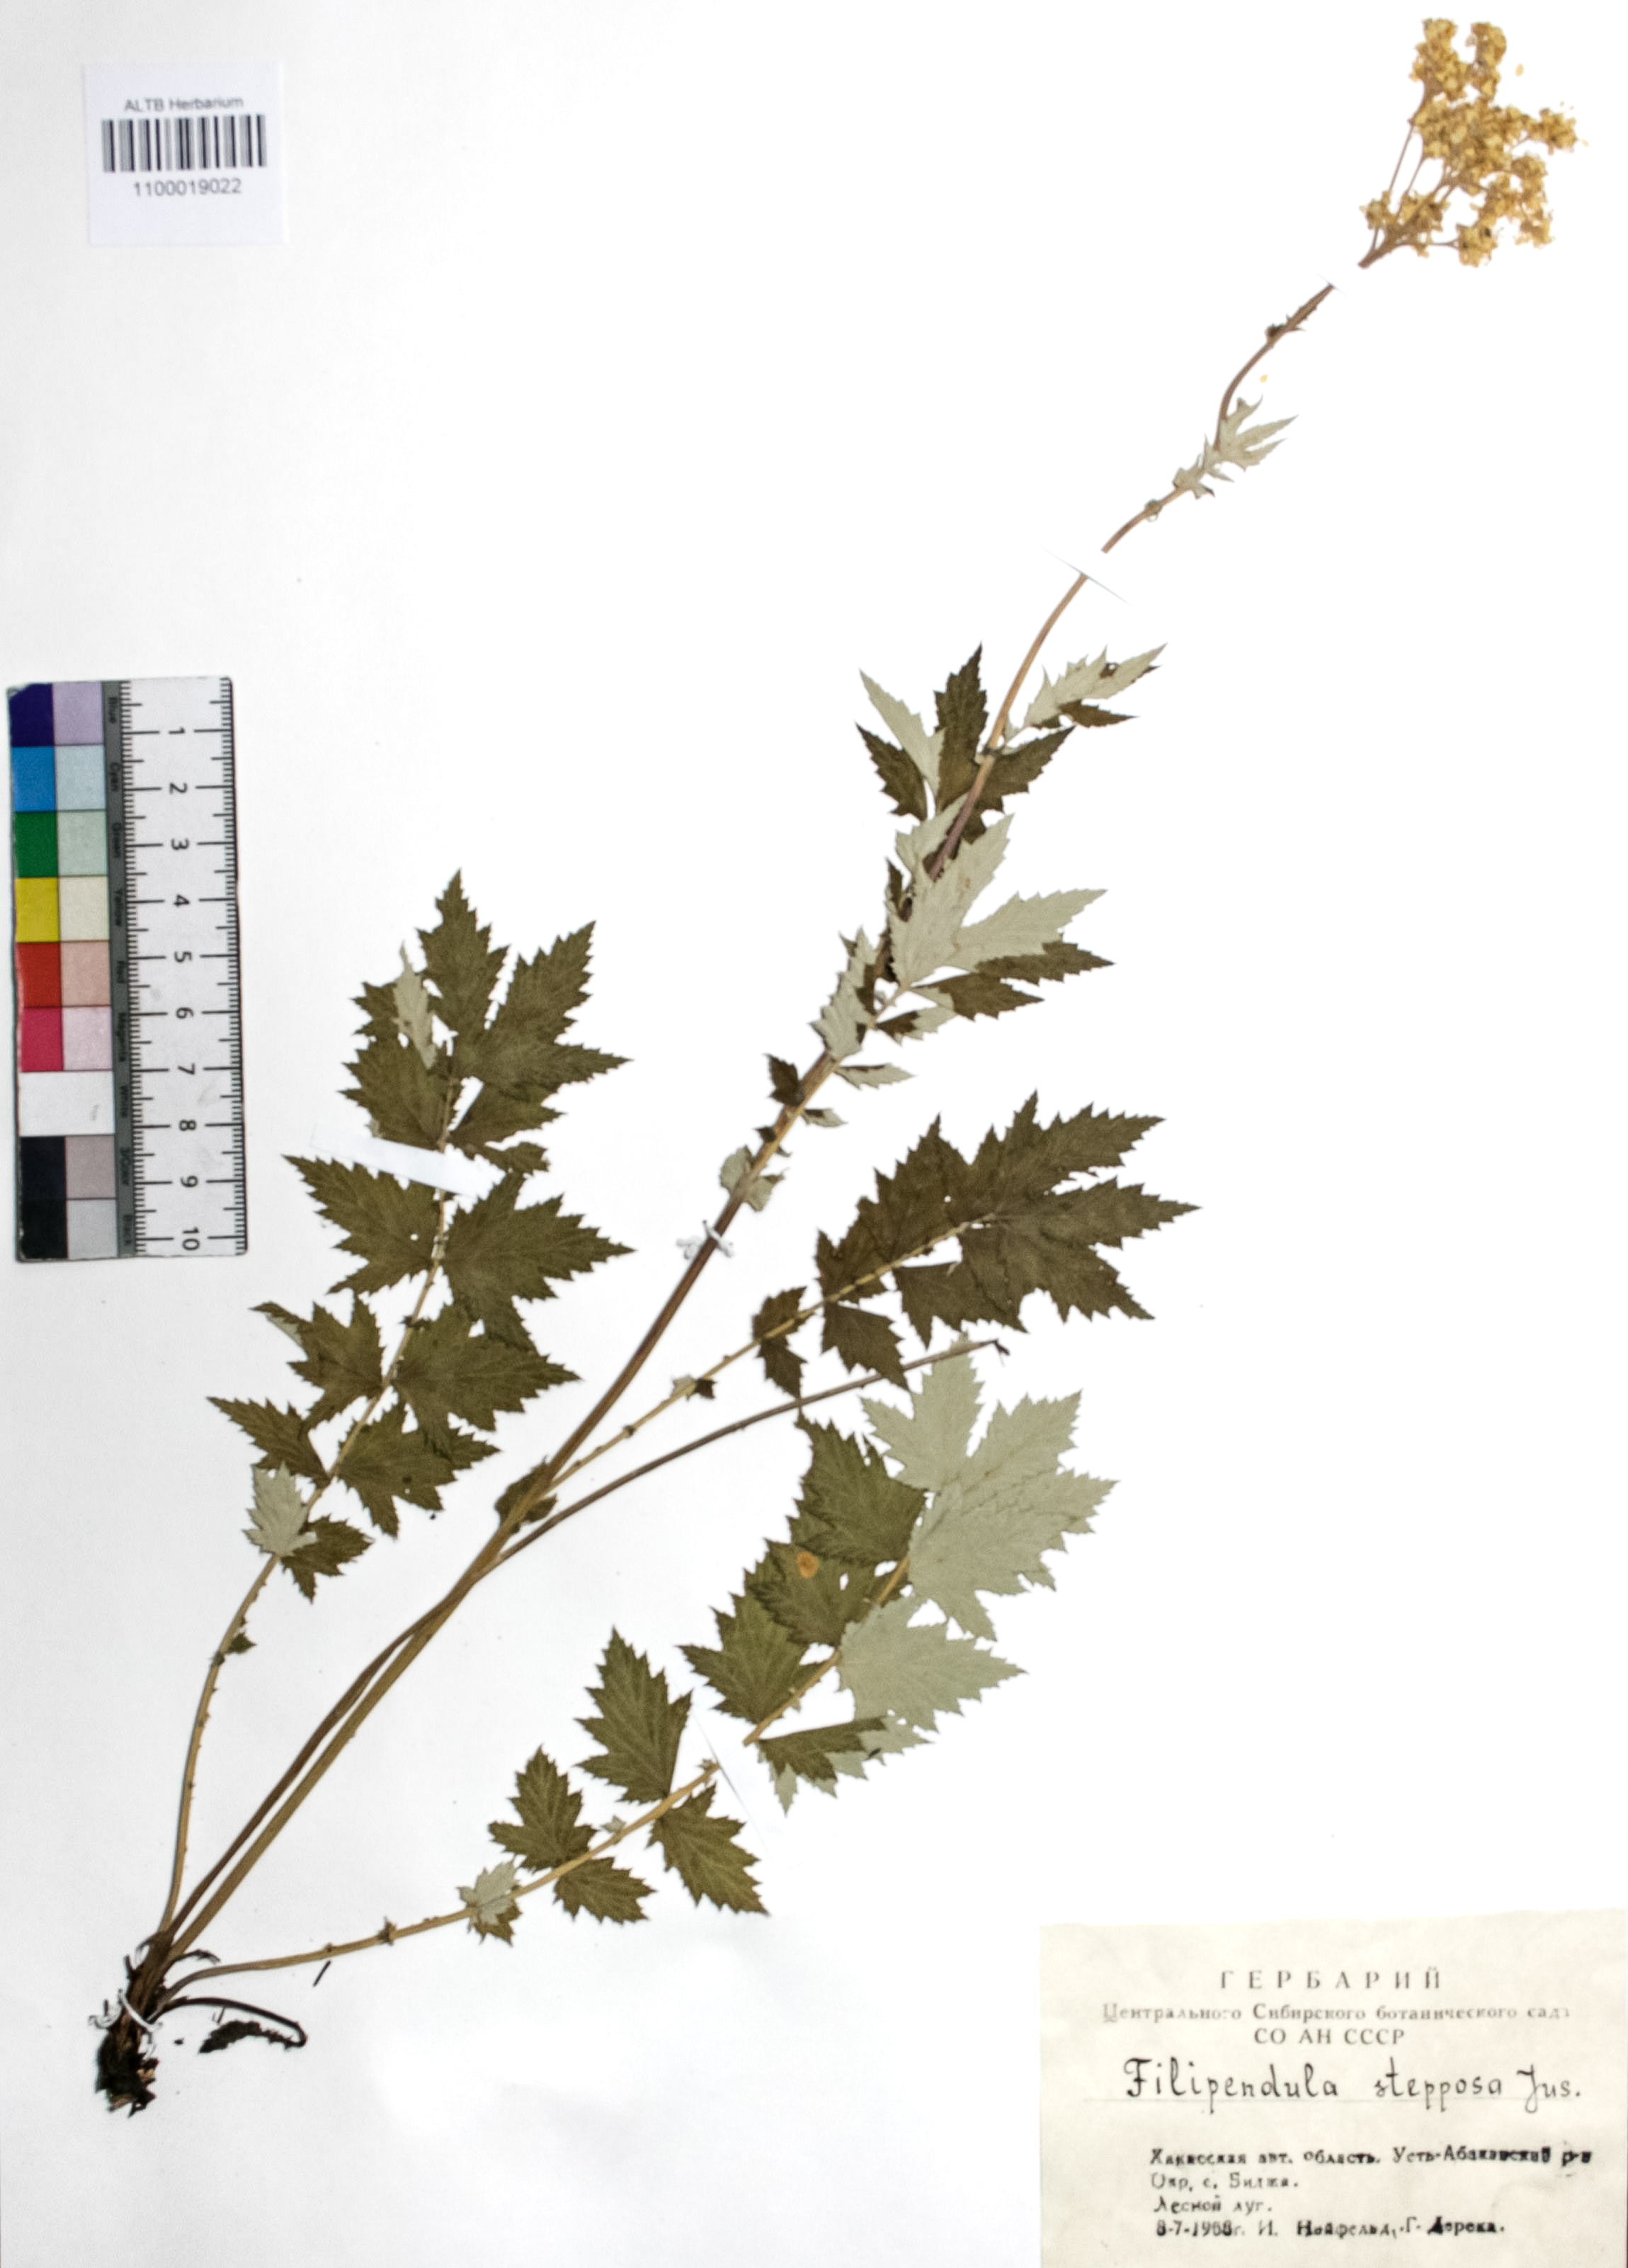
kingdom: Plantae
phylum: Tracheophyta
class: Magnoliopsida
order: Rosales
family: Rosaceae
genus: Filipendula
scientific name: Filipendula ulmaria
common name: Meadowsweet
